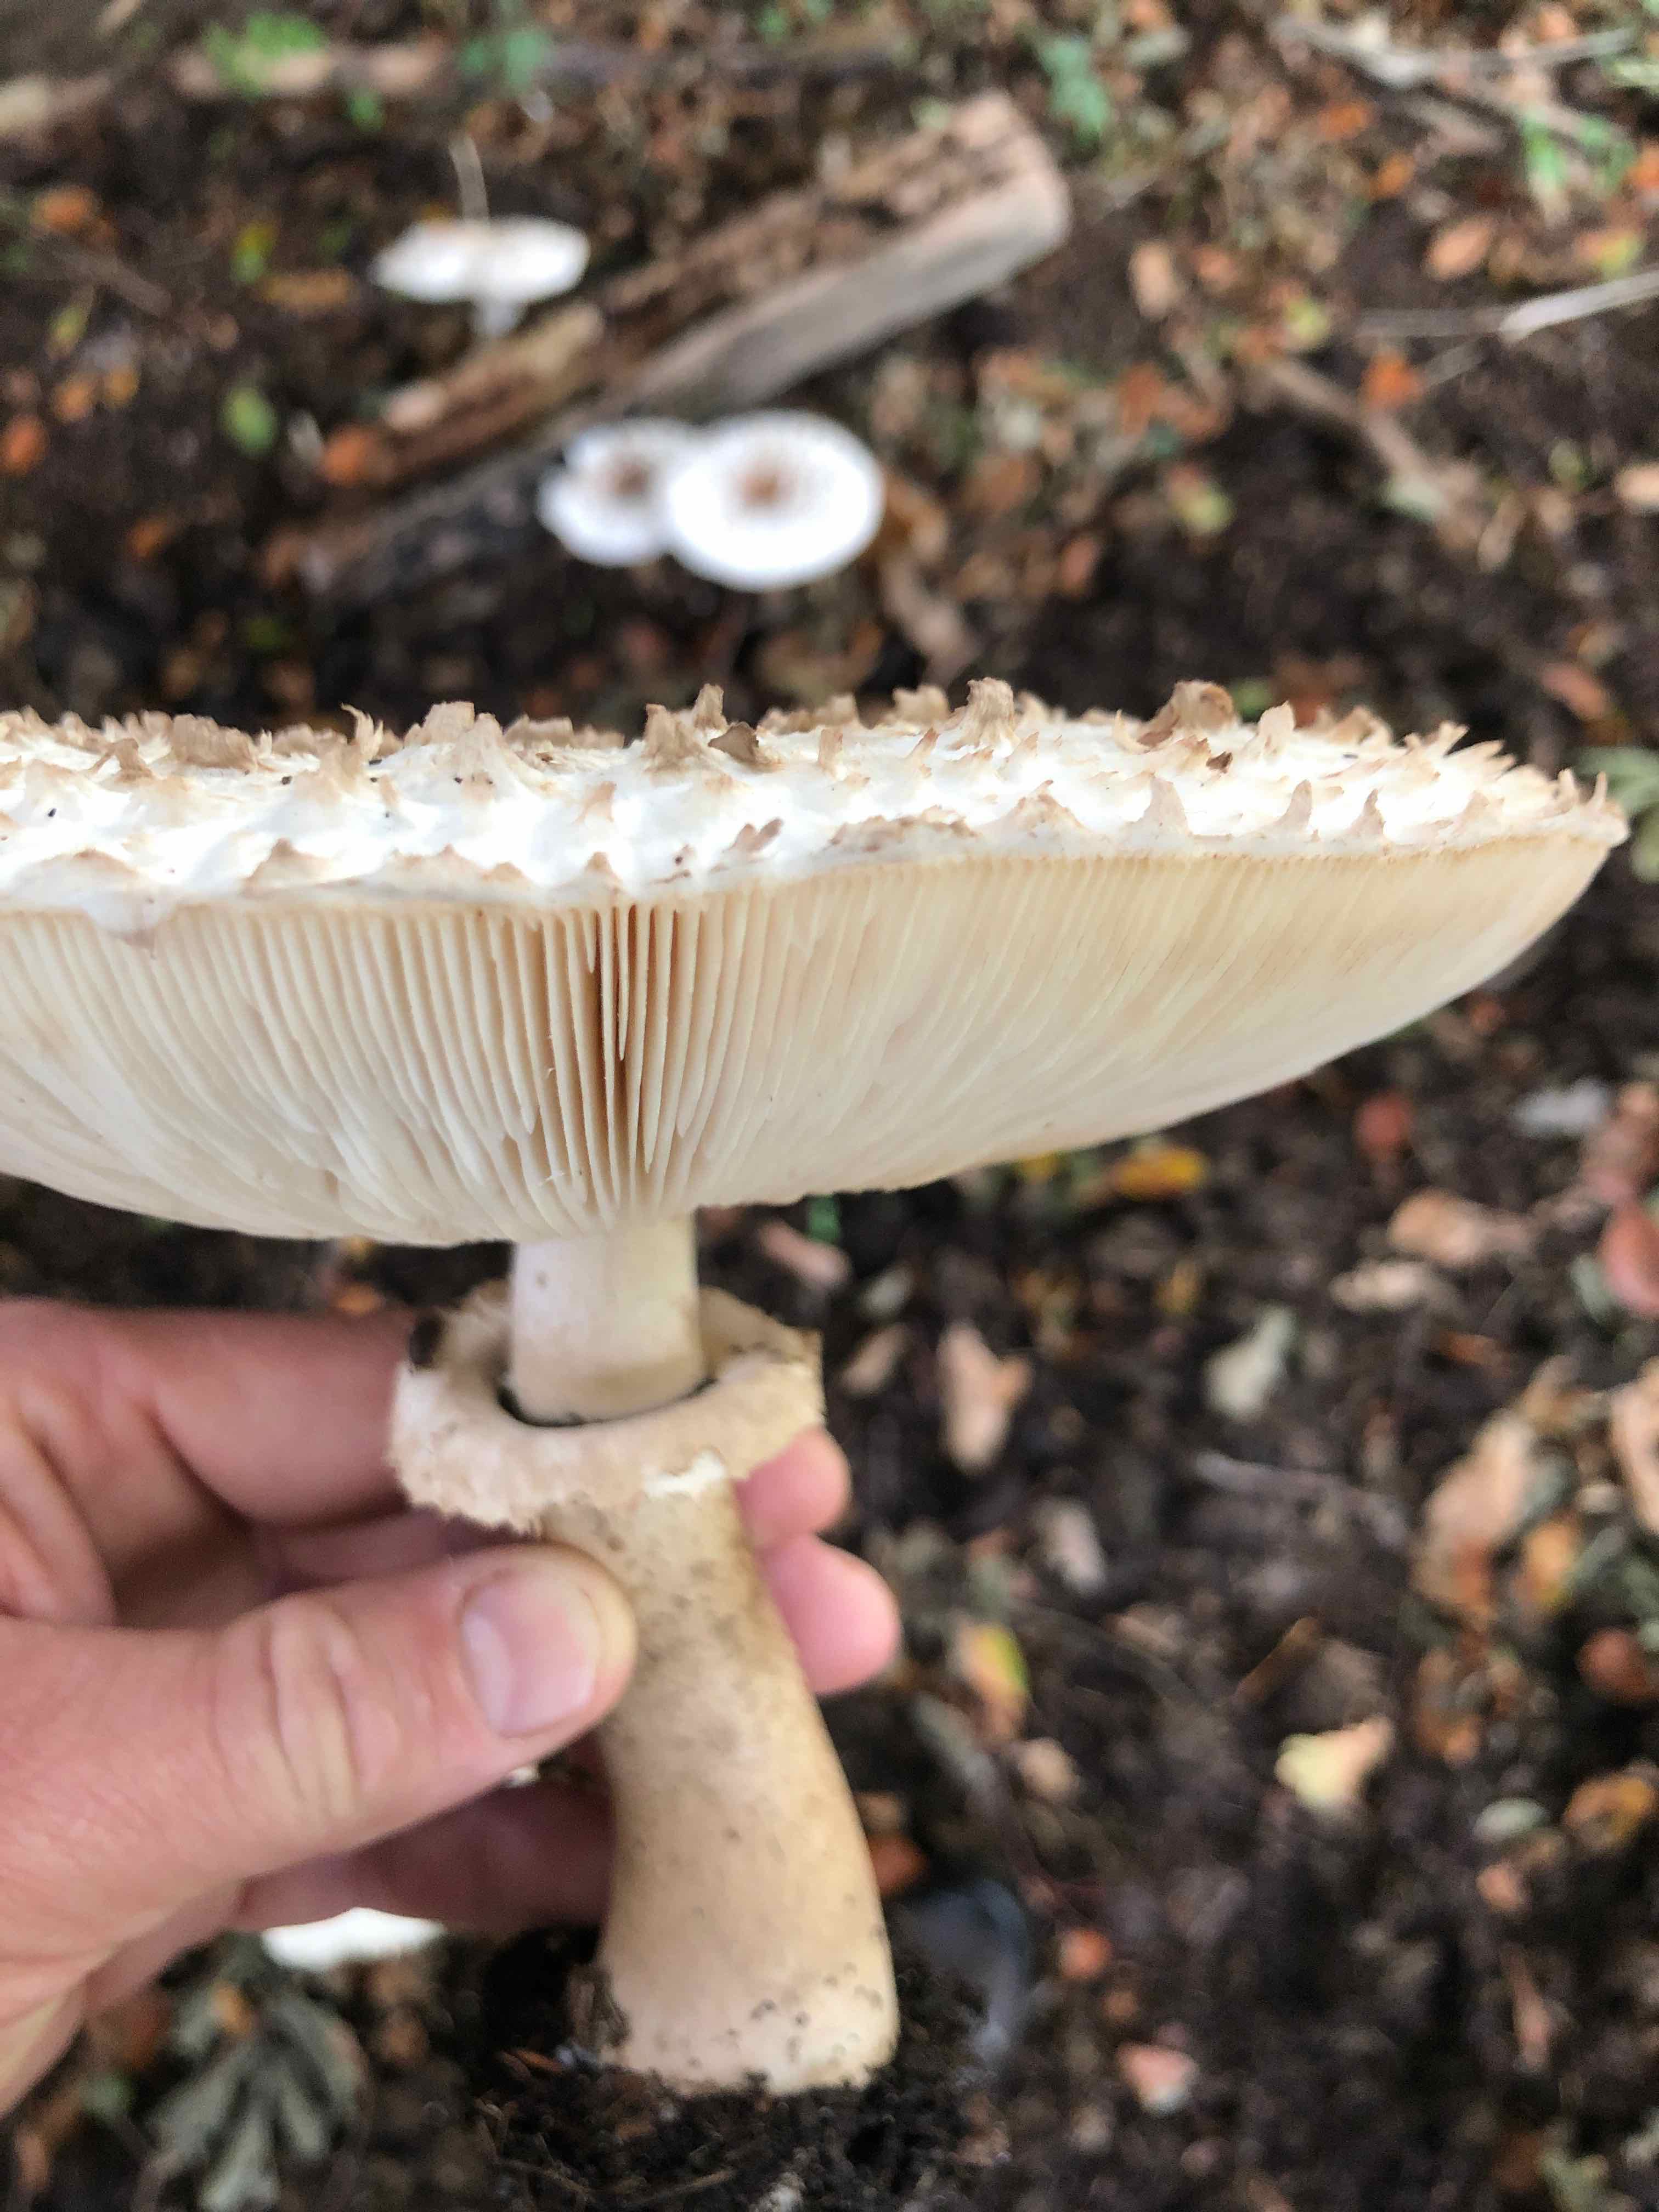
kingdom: Fungi
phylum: Basidiomycota
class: Agaricomycetes
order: Agaricales
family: Agaricaceae
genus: Leucoagaricus
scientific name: Leucoagaricus nympharum
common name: gran-silkehat
